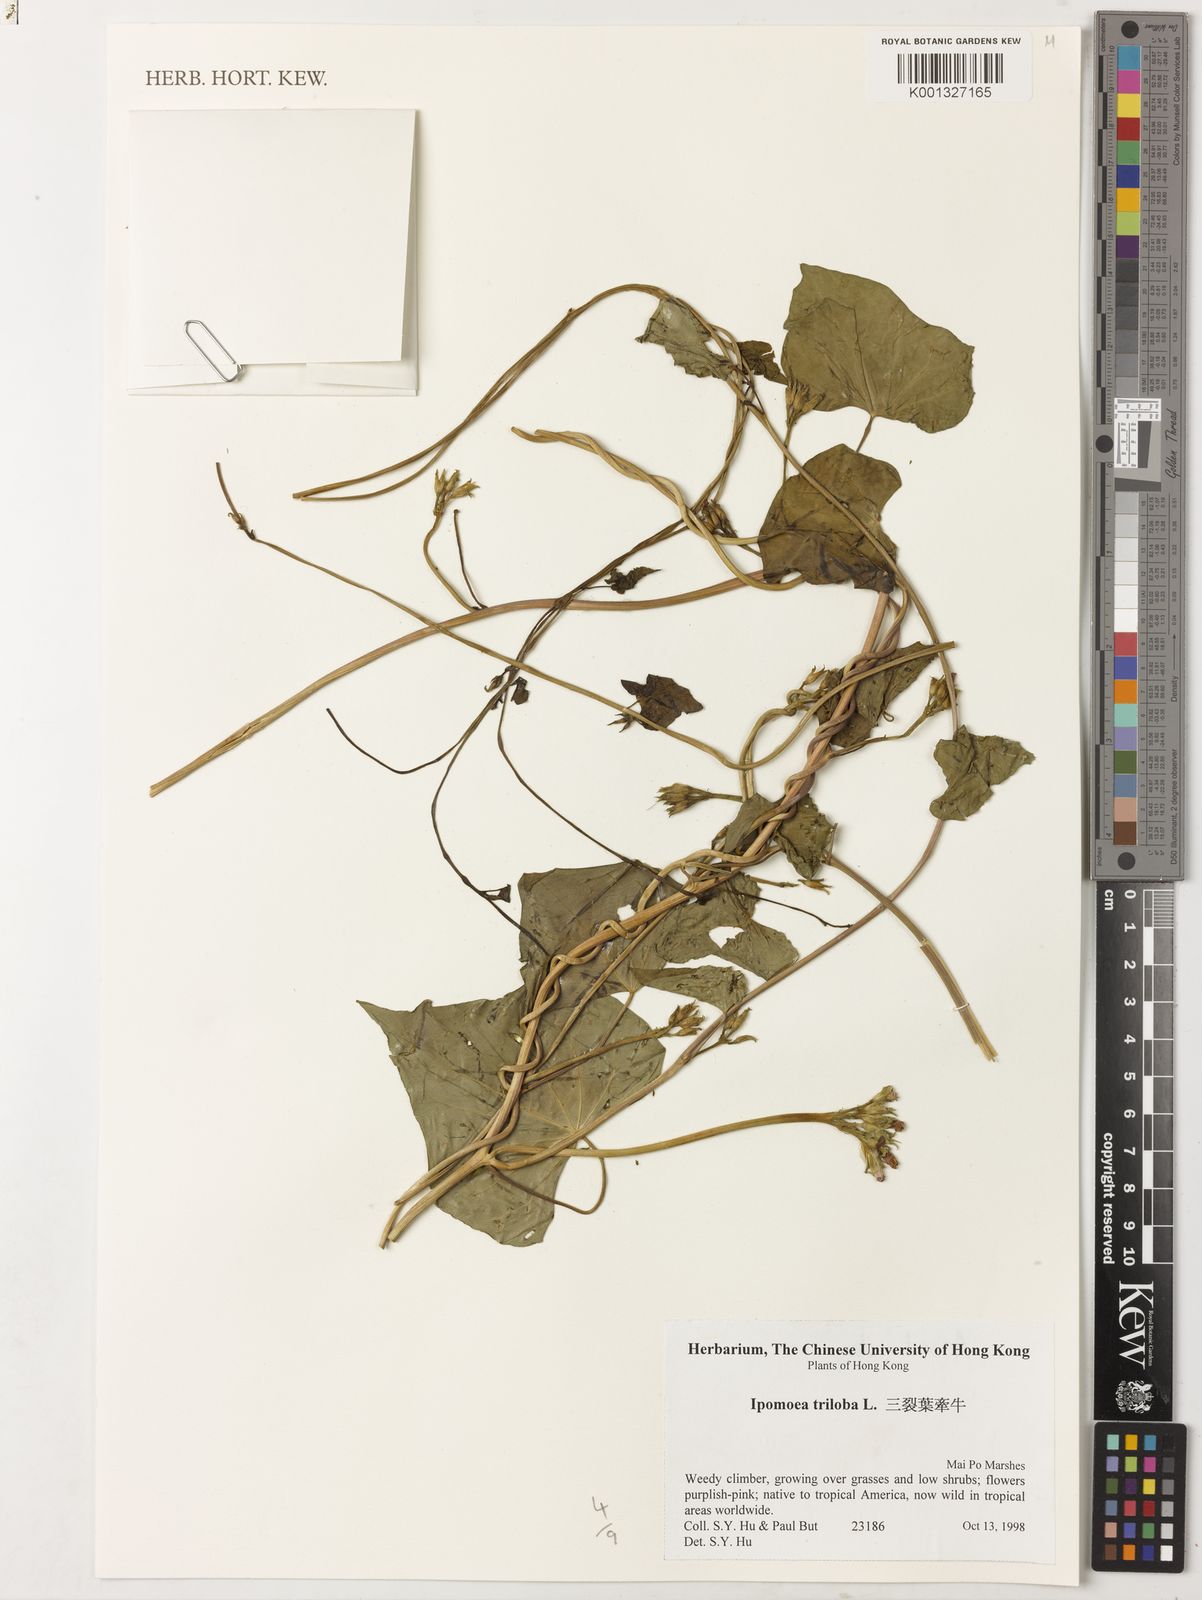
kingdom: Plantae
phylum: Tracheophyta
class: Magnoliopsida
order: Solanales
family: Convolvulaceae
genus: Ipomoea
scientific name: Ipomoea triloba
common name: Little-bell
